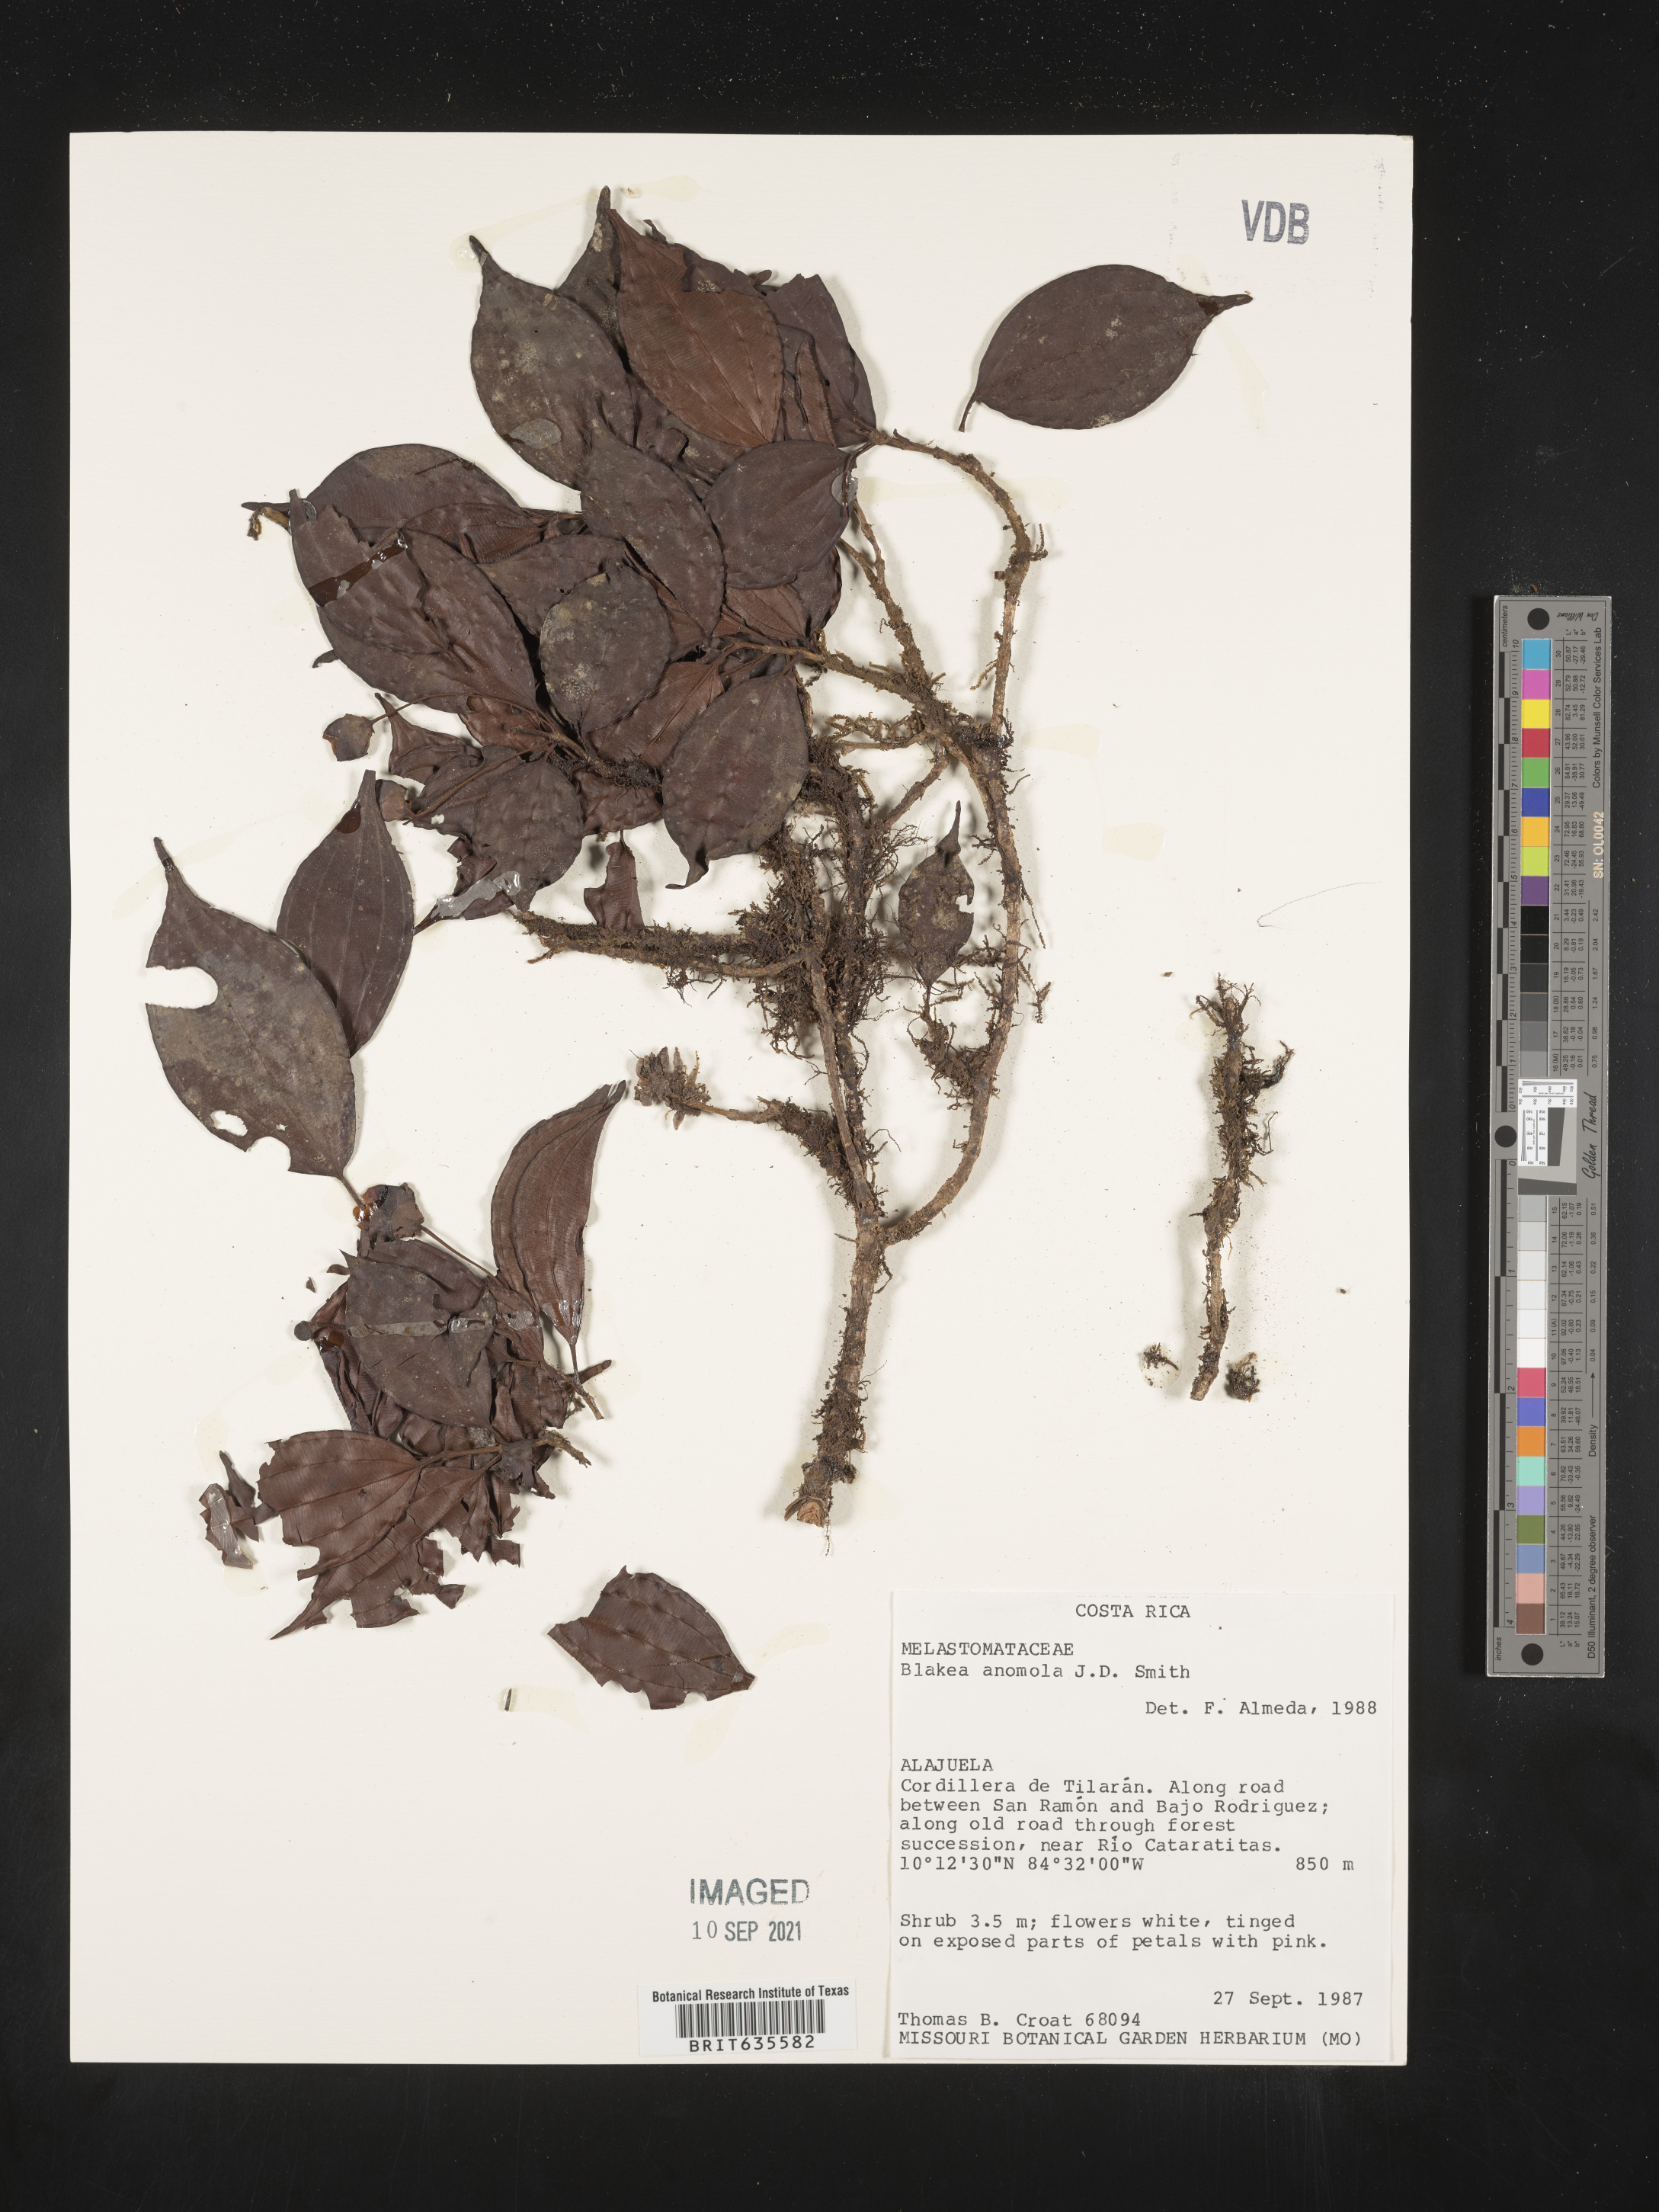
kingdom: Plantae
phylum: Tracheophyta
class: Magnoliopsida
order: Myrtales
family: Melastomataceae
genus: Blakea
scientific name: Blakea
